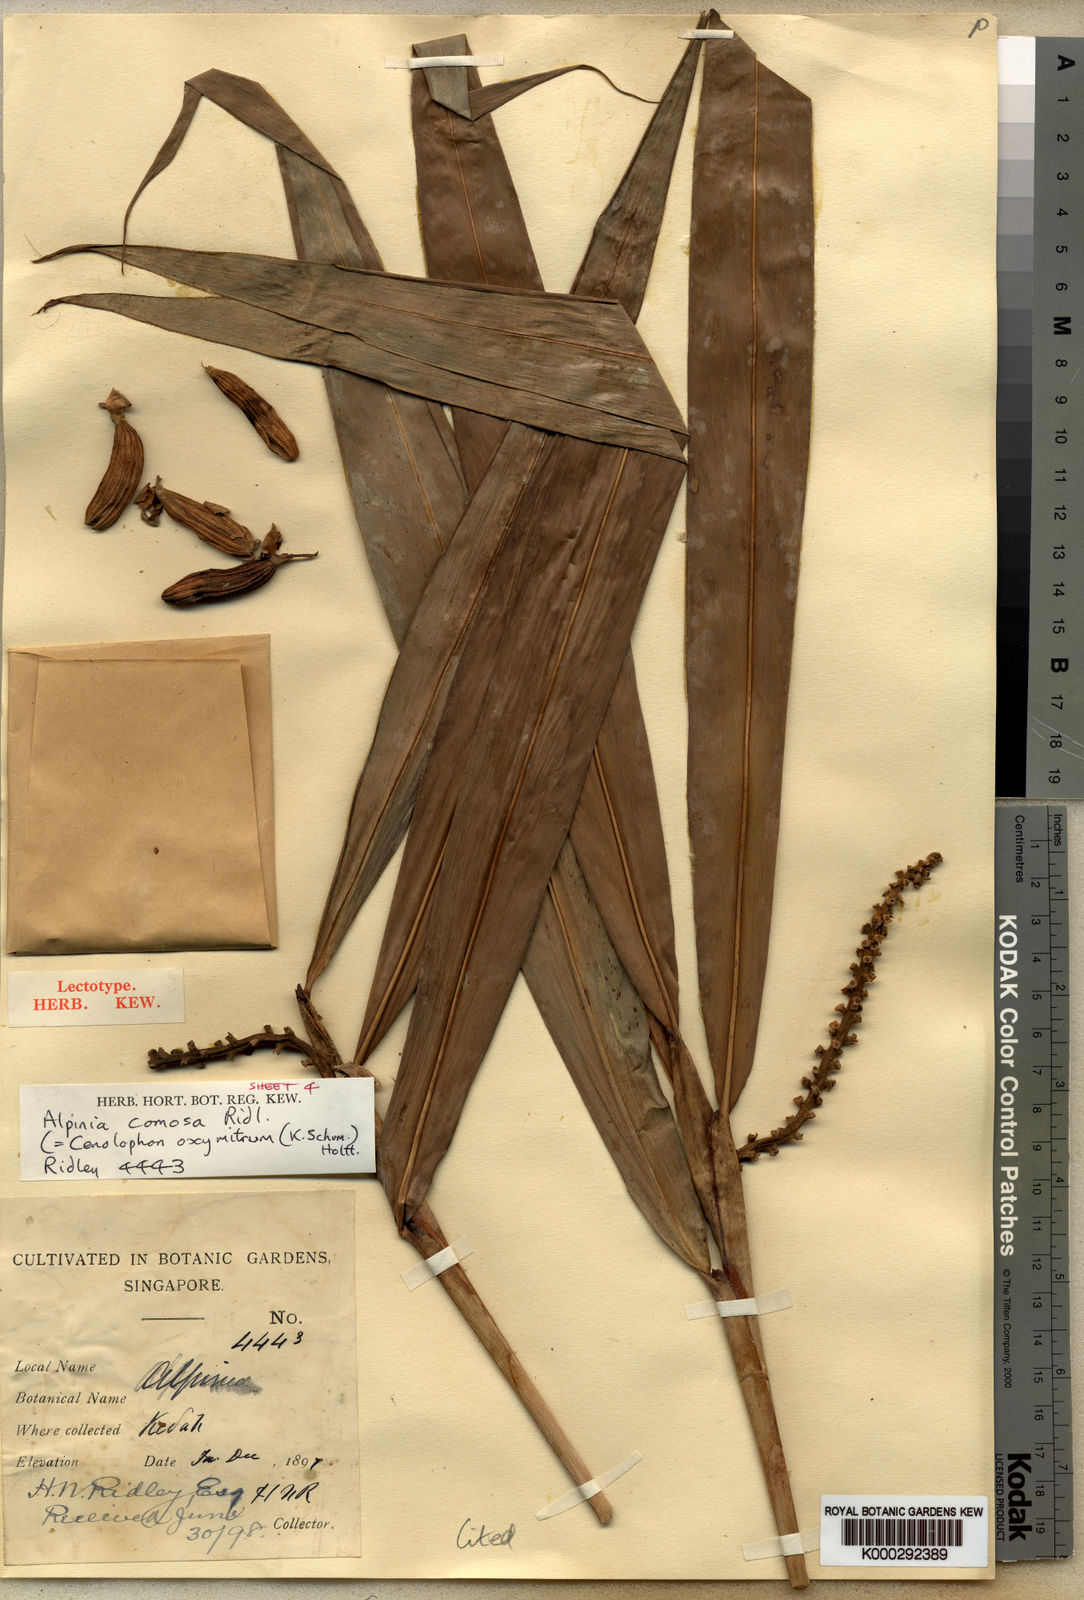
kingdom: Plantae
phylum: Tracheophyta
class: Liliopsida
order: Zingiberales
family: Zingiberaceae
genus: Alpinia
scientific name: Alpinia oxymitra
